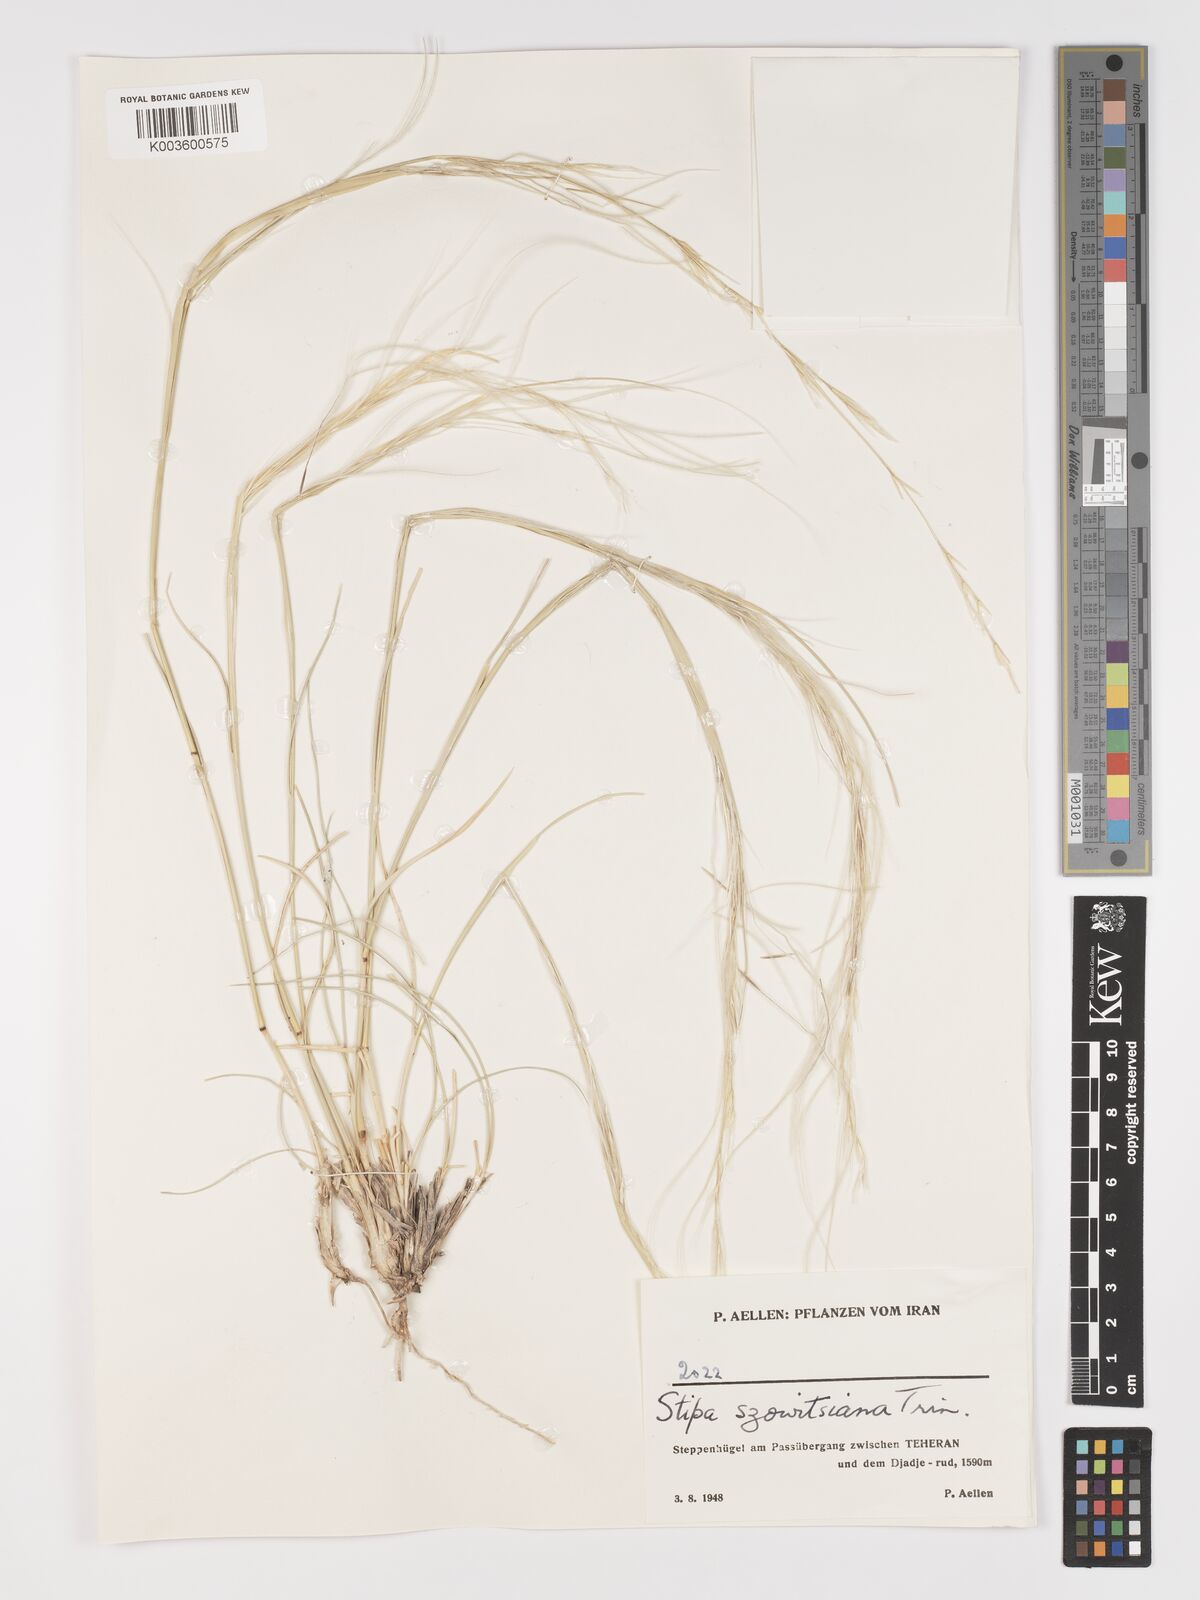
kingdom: Plantae
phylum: Tracheophyta
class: Liliopsida
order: Poales
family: Poaceae
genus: Stipa
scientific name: Stipa barbata
